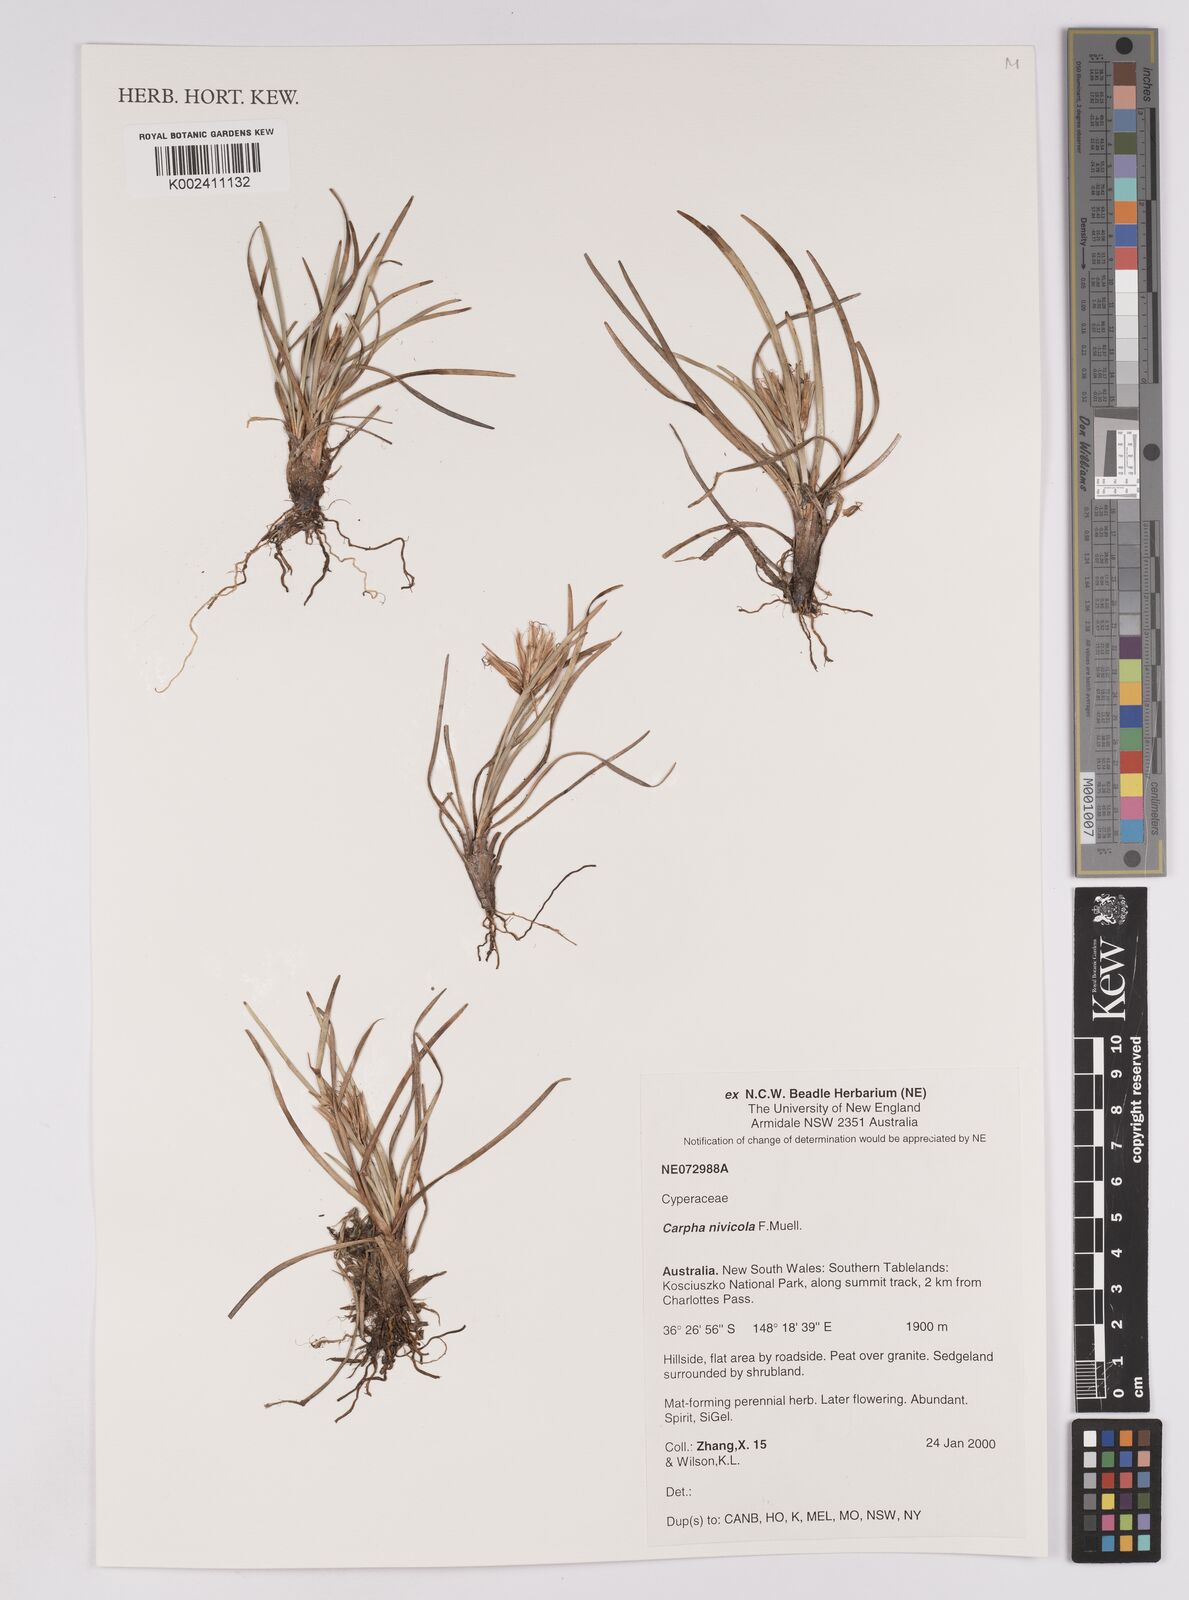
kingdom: Plantae
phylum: Tracheophyta
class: Liliopsida
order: Poales
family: Cyperaceae
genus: Carpha
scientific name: Carpha alpina
